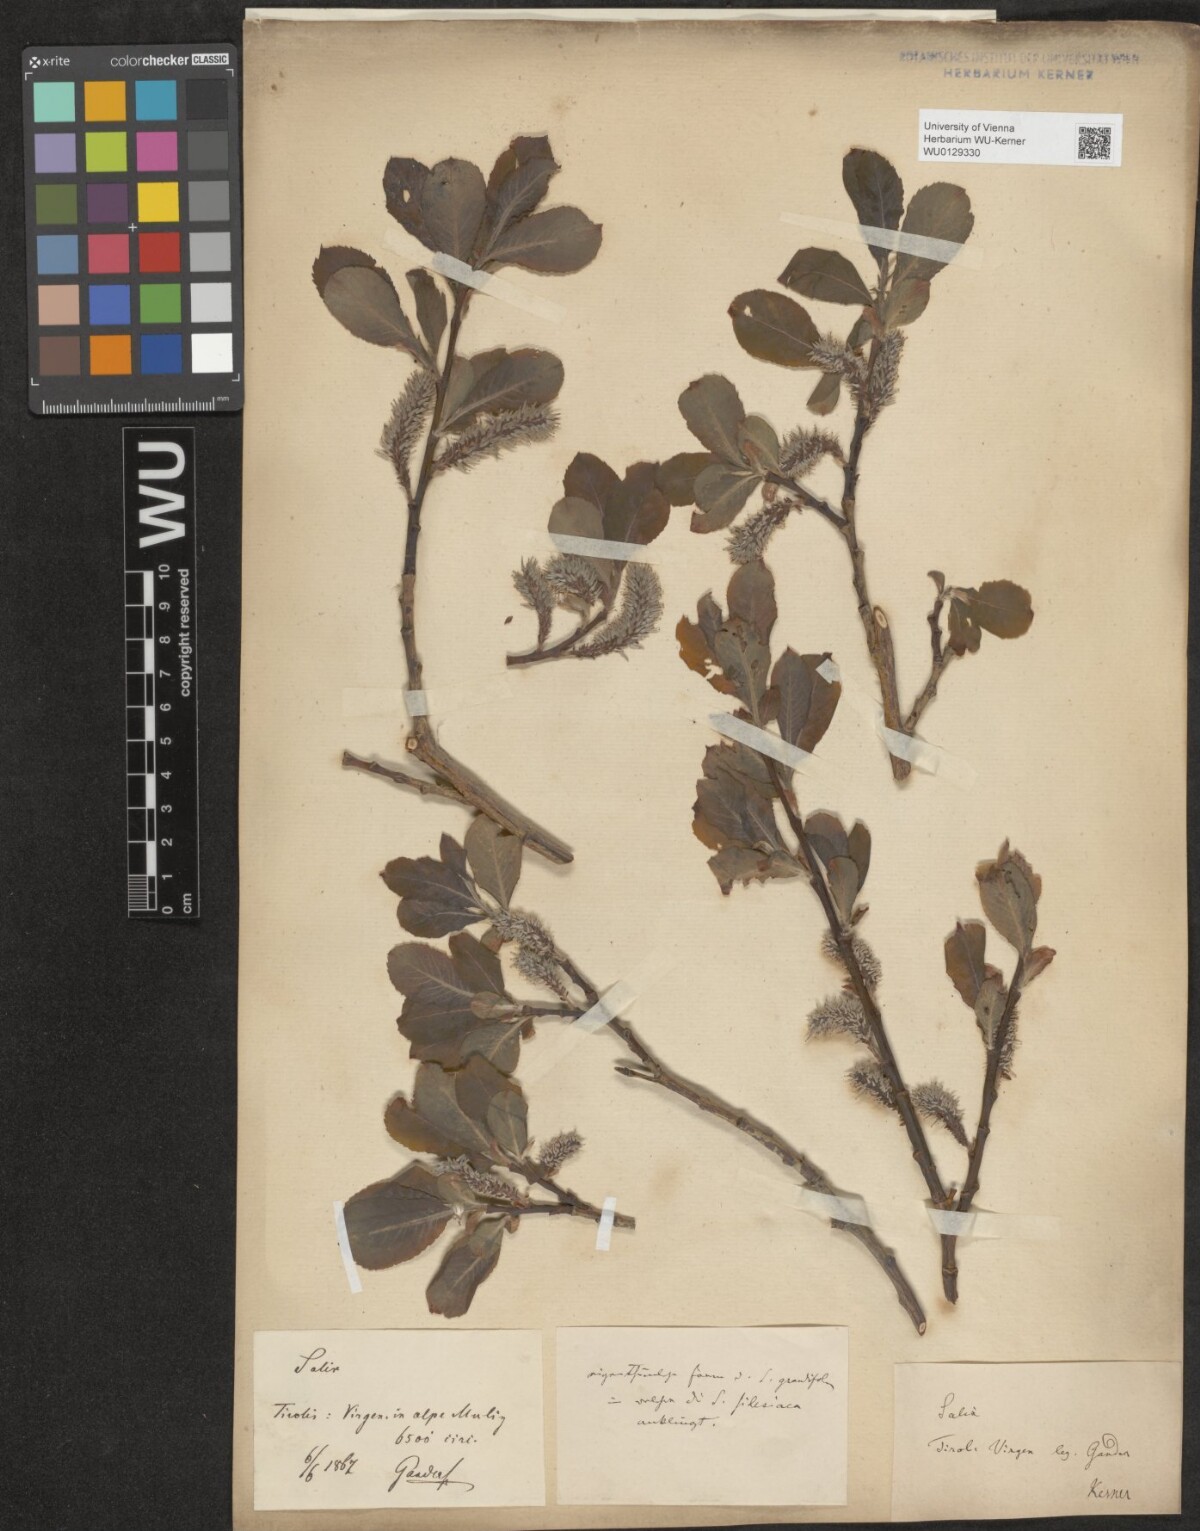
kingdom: Plantae
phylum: Tracheophyta
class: Magnoliopsida
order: Malpighiales
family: Salicaceae
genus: Salix
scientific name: Salix appendiculata
